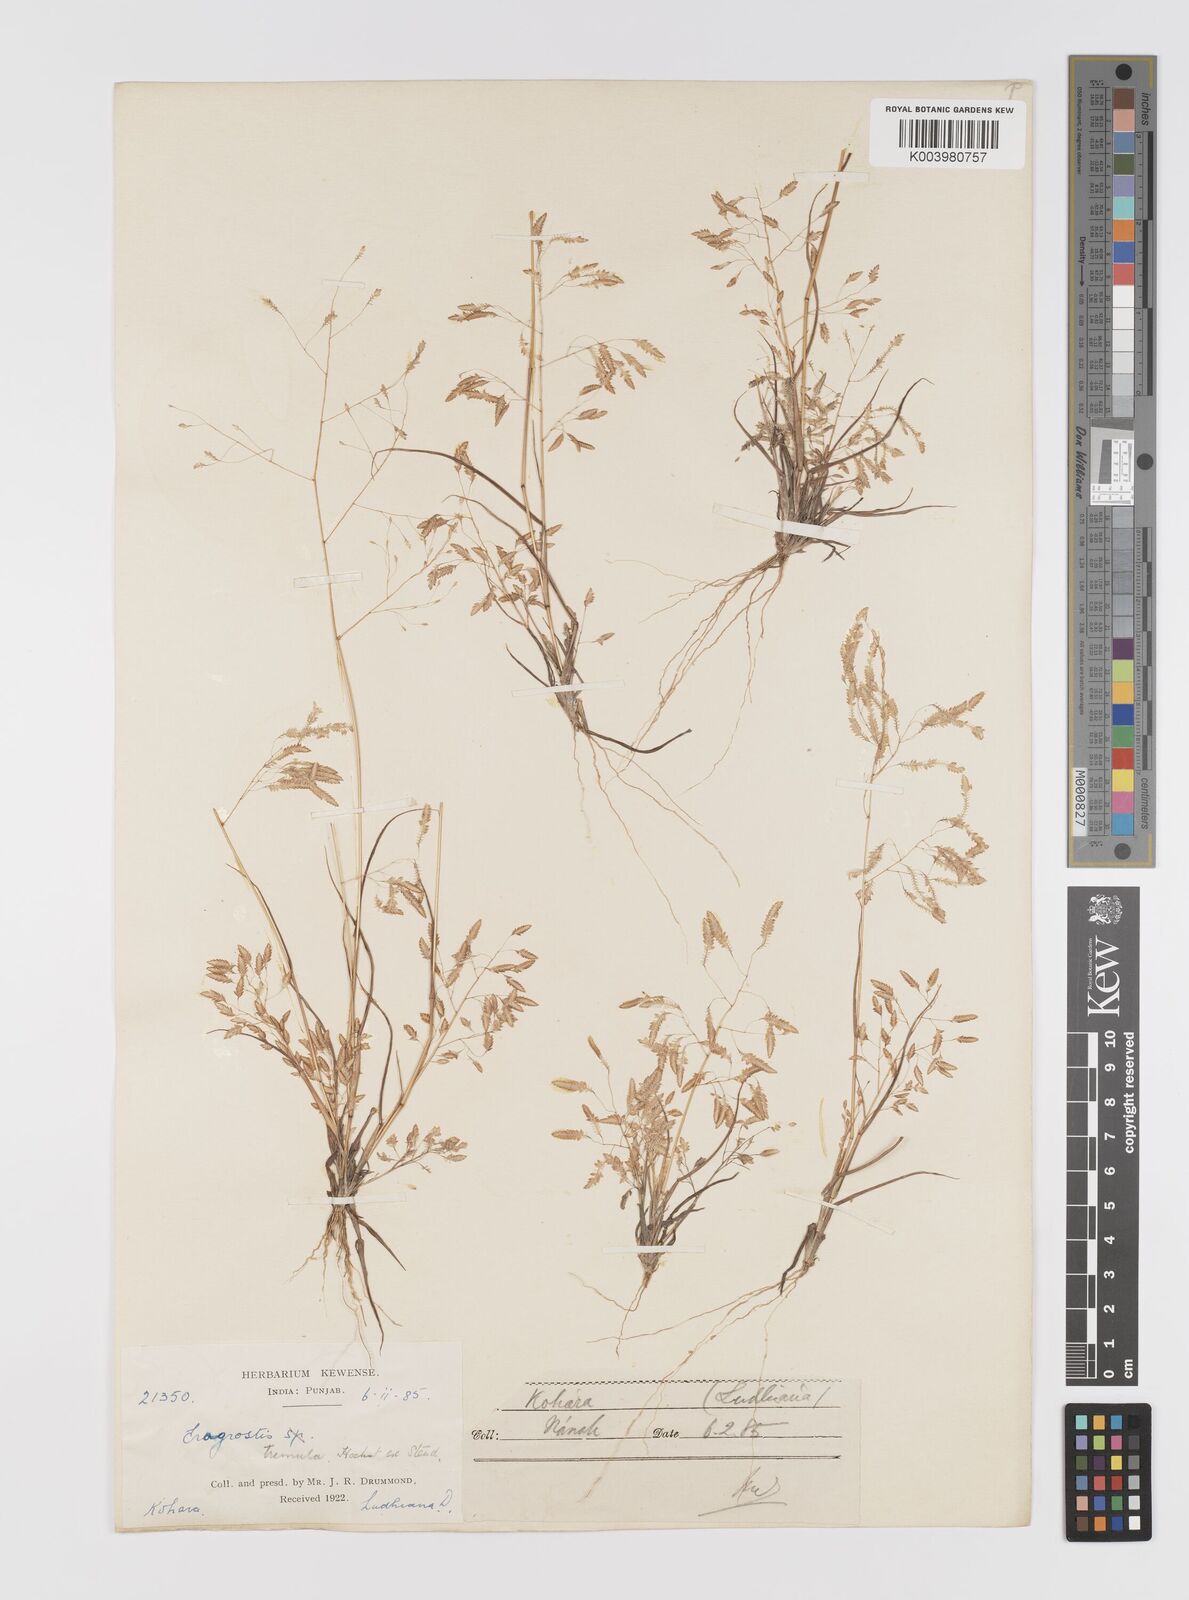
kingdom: Plantae
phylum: Tracheophyta
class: Liliopsida
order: Poales
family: Poaceae
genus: Eragrostis
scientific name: Eragrostis tremula
